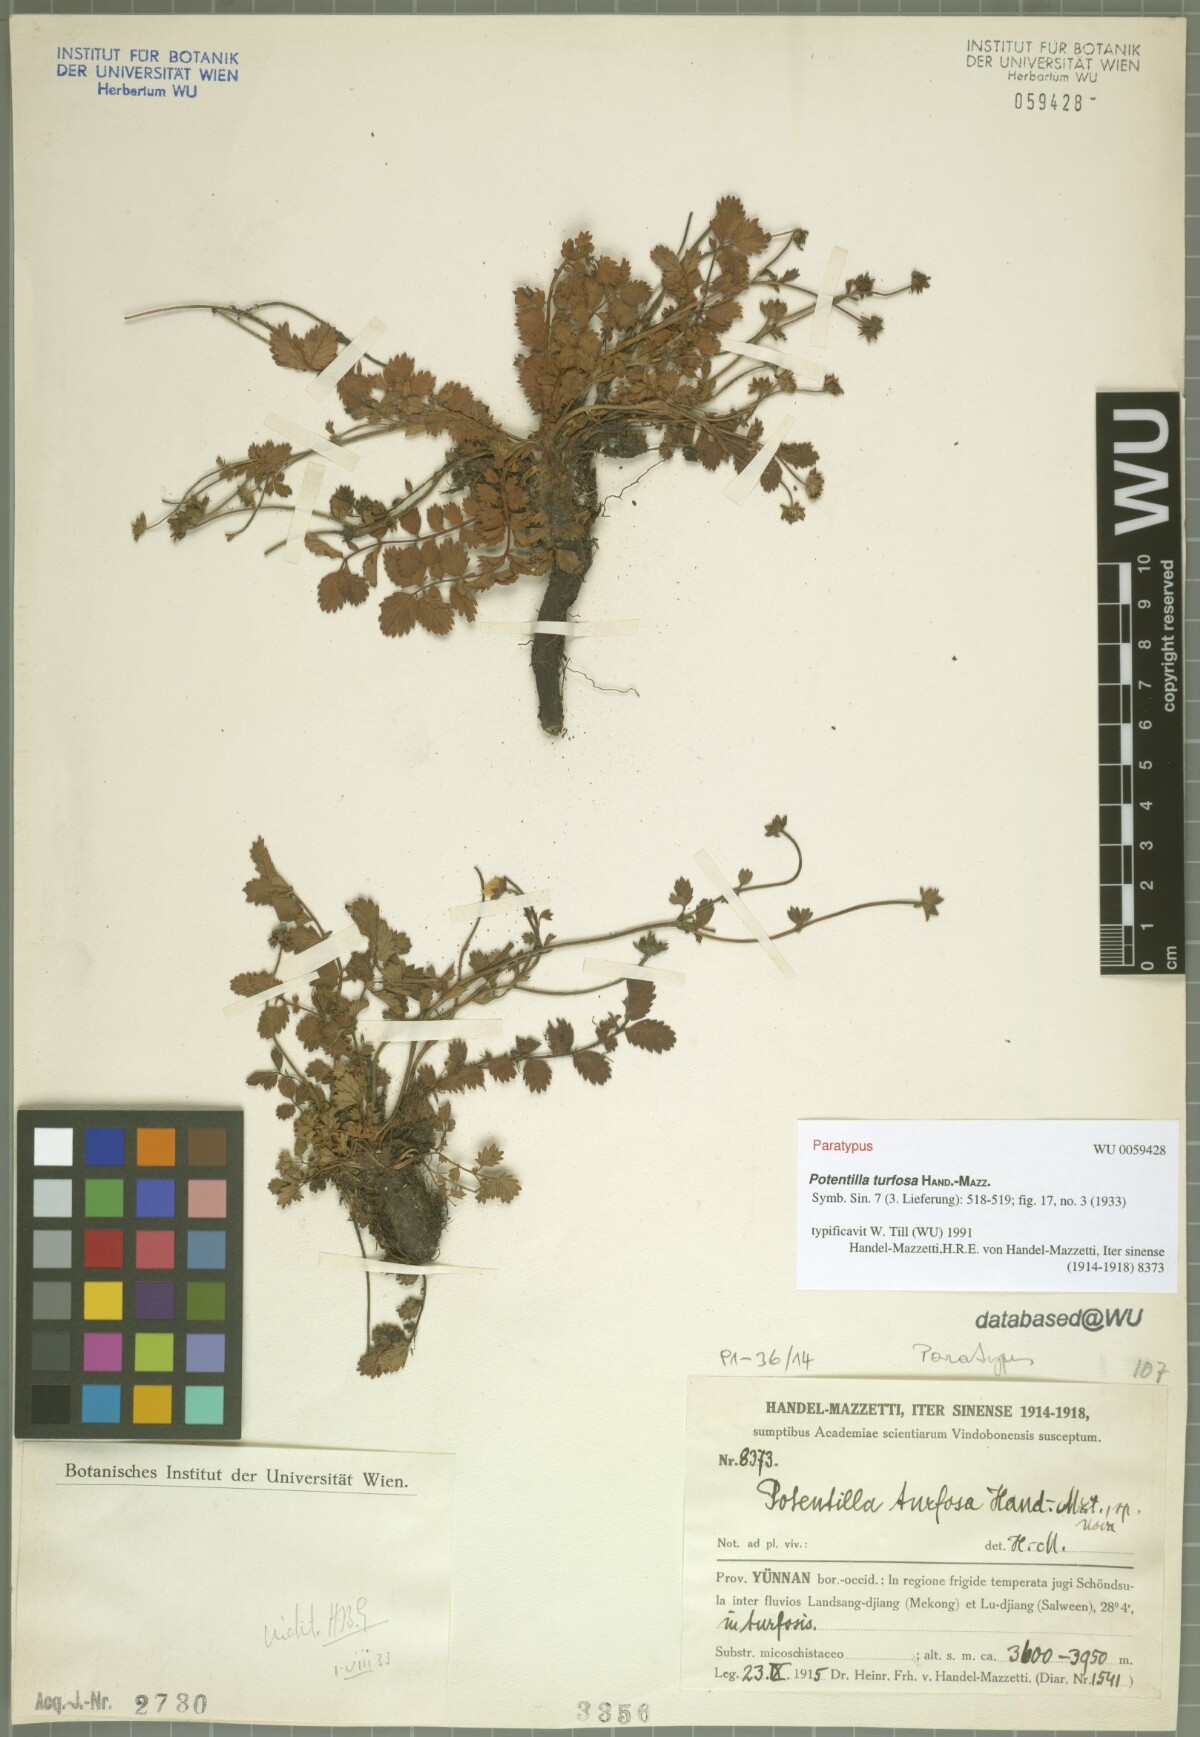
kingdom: Plantae
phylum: Tracheophyta
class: Magnoliopsida
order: Rosales
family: Rosaceae
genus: Argentina
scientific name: Argentina turfosa
